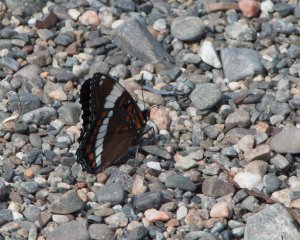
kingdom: Animalia
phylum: Arthropoda
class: Insecta
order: Lepidoptera
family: Nymphalidae
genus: Limenitis
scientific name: Limenitis arthemis
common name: Red-spotted Admiral
